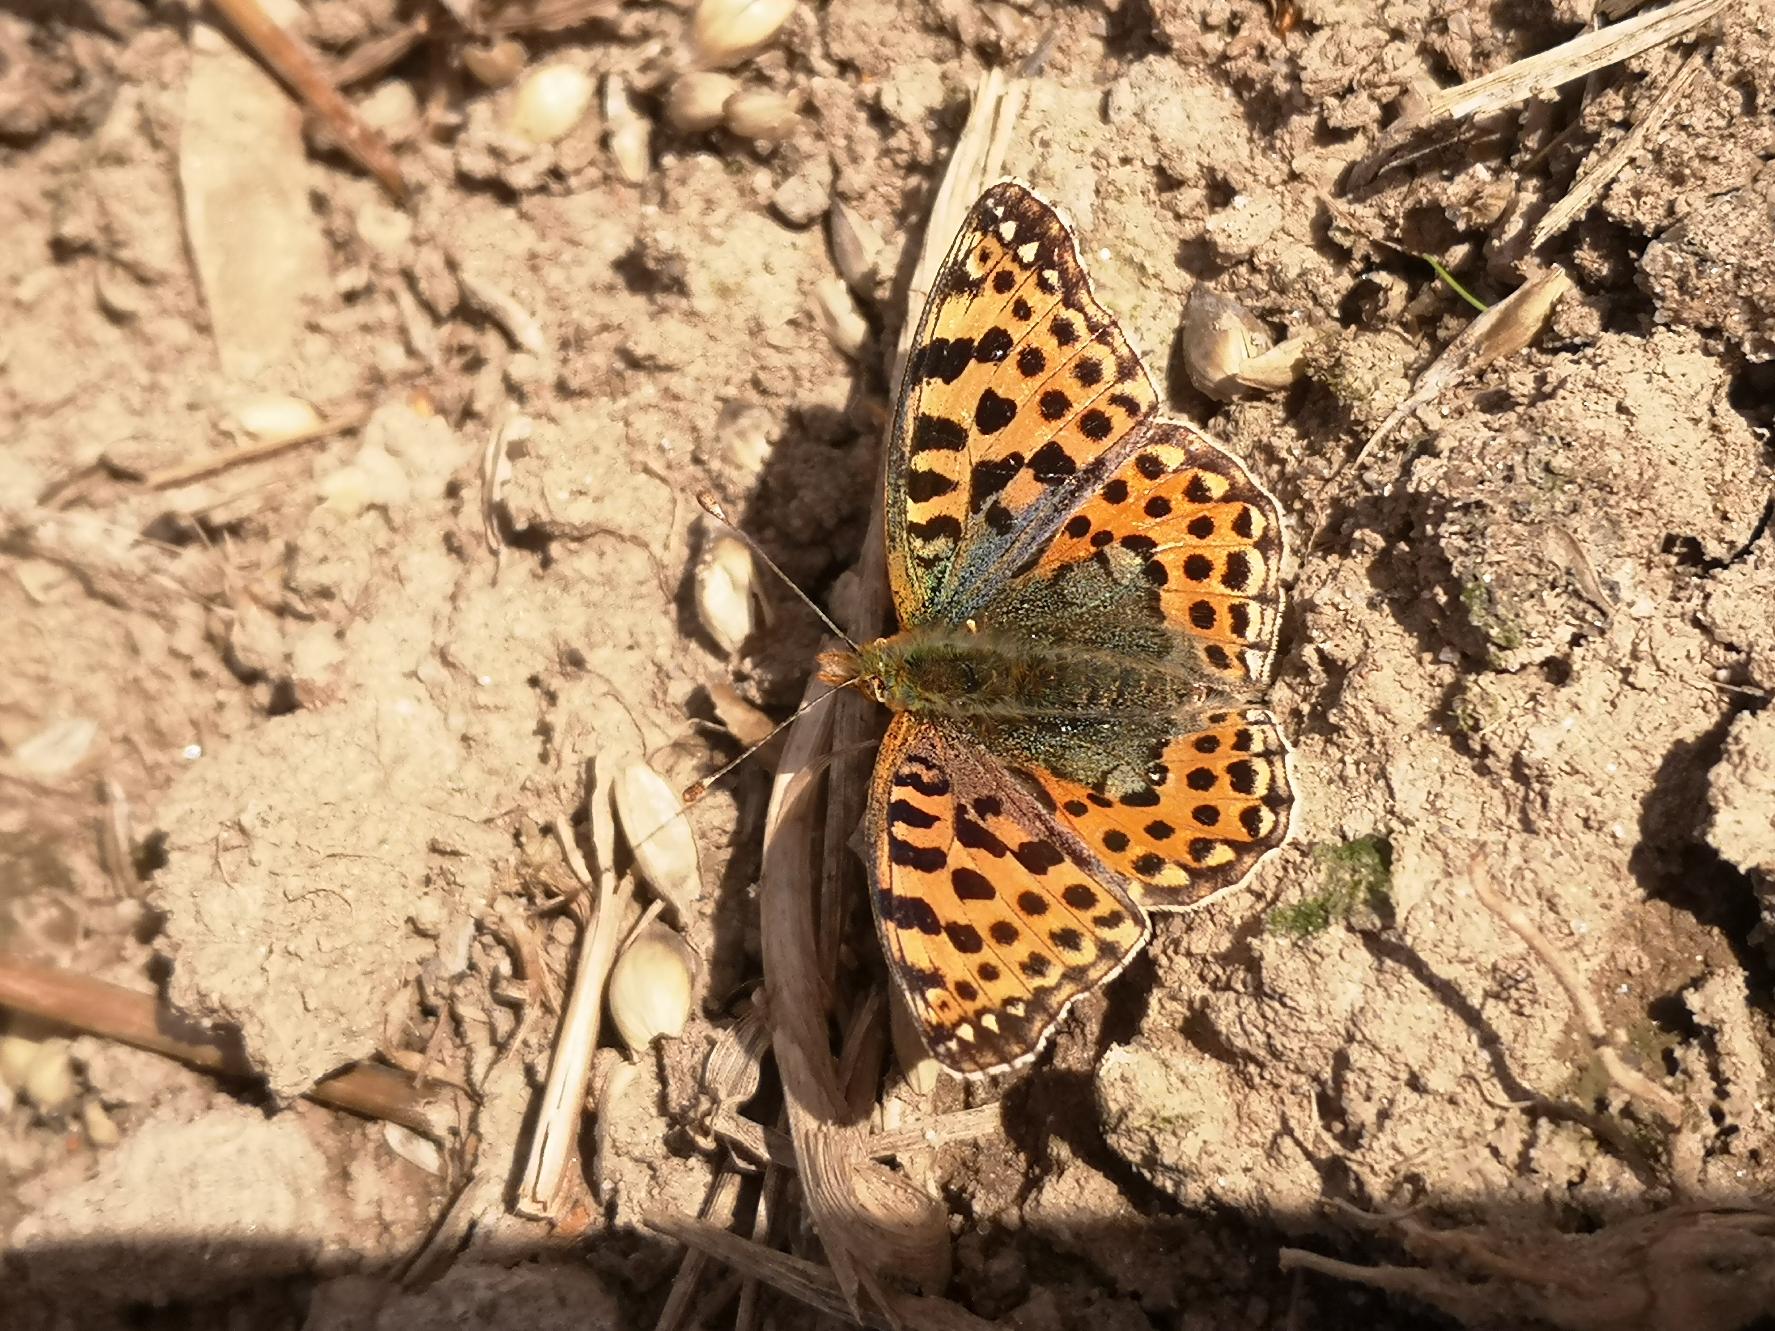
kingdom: Animalia
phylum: Arthropoda
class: Insecta
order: Lepidoptera
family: Nymphalidae
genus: Issoria
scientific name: Issoria lathonia
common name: Storplettet perlemorsommerfugl
